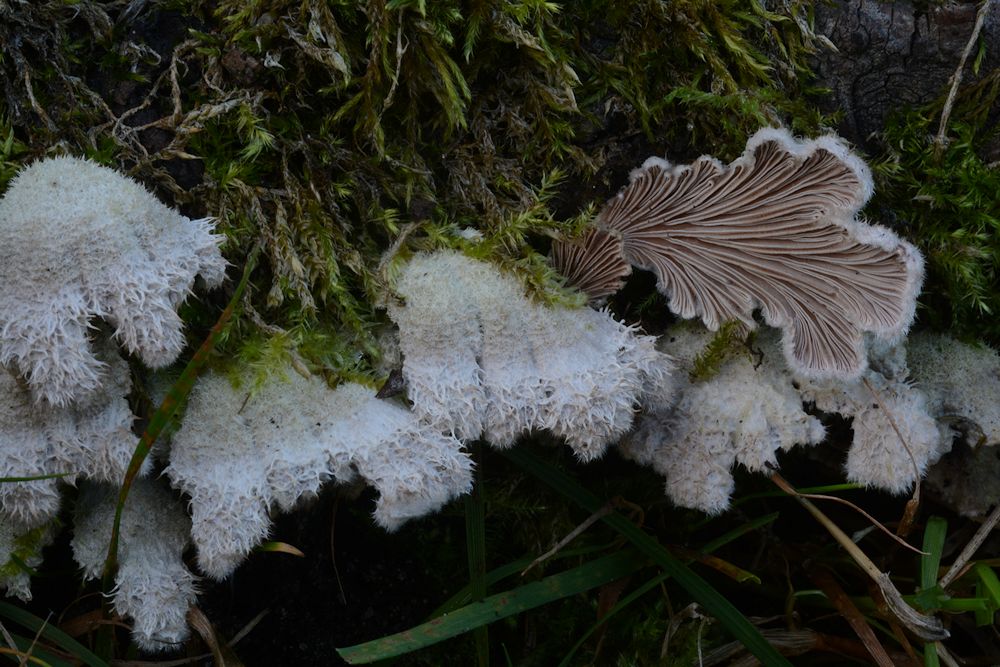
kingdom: Fungi
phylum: Basidiomycota
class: Agaricomycetes
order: Agaricales
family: Schizophyllaceae
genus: Schizophyllum
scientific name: Schizophyllum commune
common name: kløvblad
